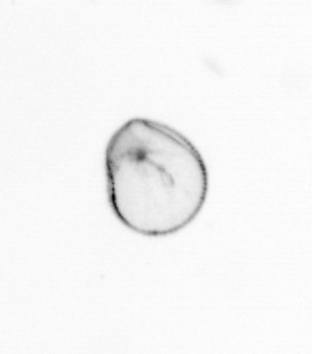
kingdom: Chromista
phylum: Myzozoa
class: Dinophyceae
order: Noctilucales
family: Noctilucaceae
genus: Noctiluca
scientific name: Noctiluca scintillans
